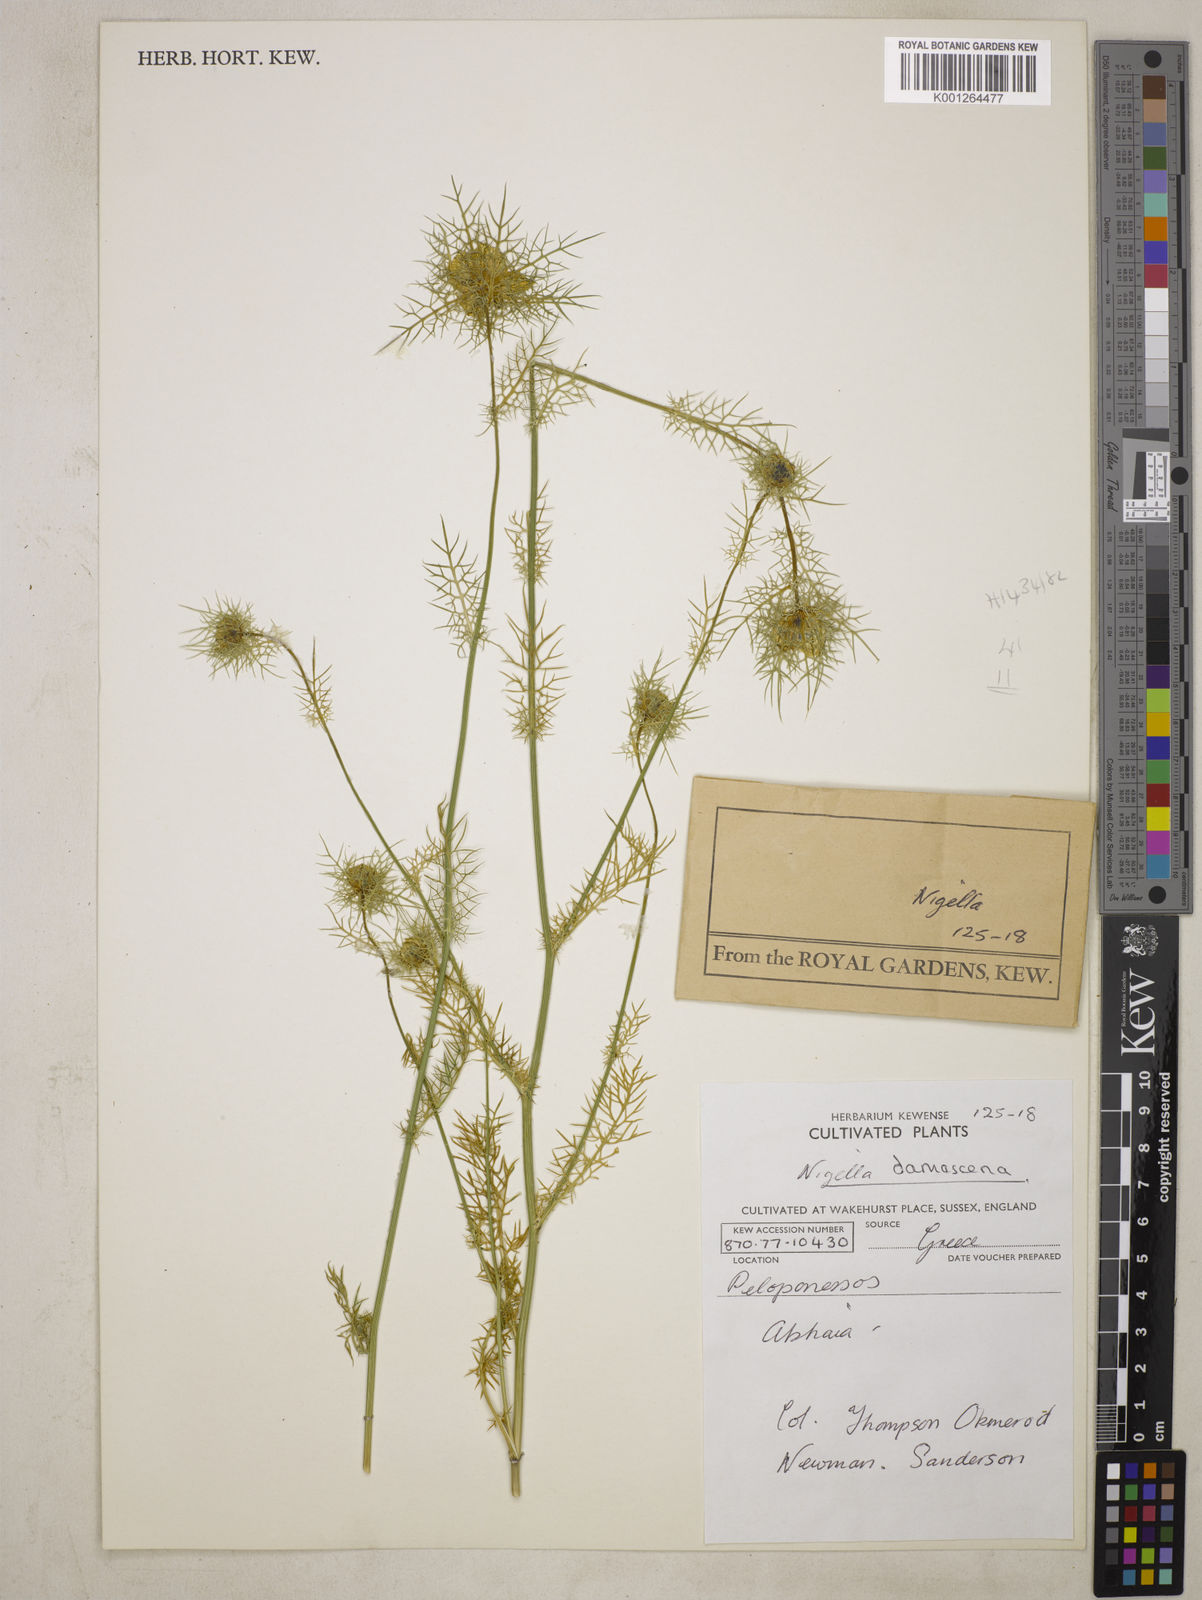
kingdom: Plantae
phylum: Tracheophyta
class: Magnoliopsida
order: Ranunculales
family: Ranunculaceae
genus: Nigella
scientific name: Nigella damascena
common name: Love-in-a-mist
